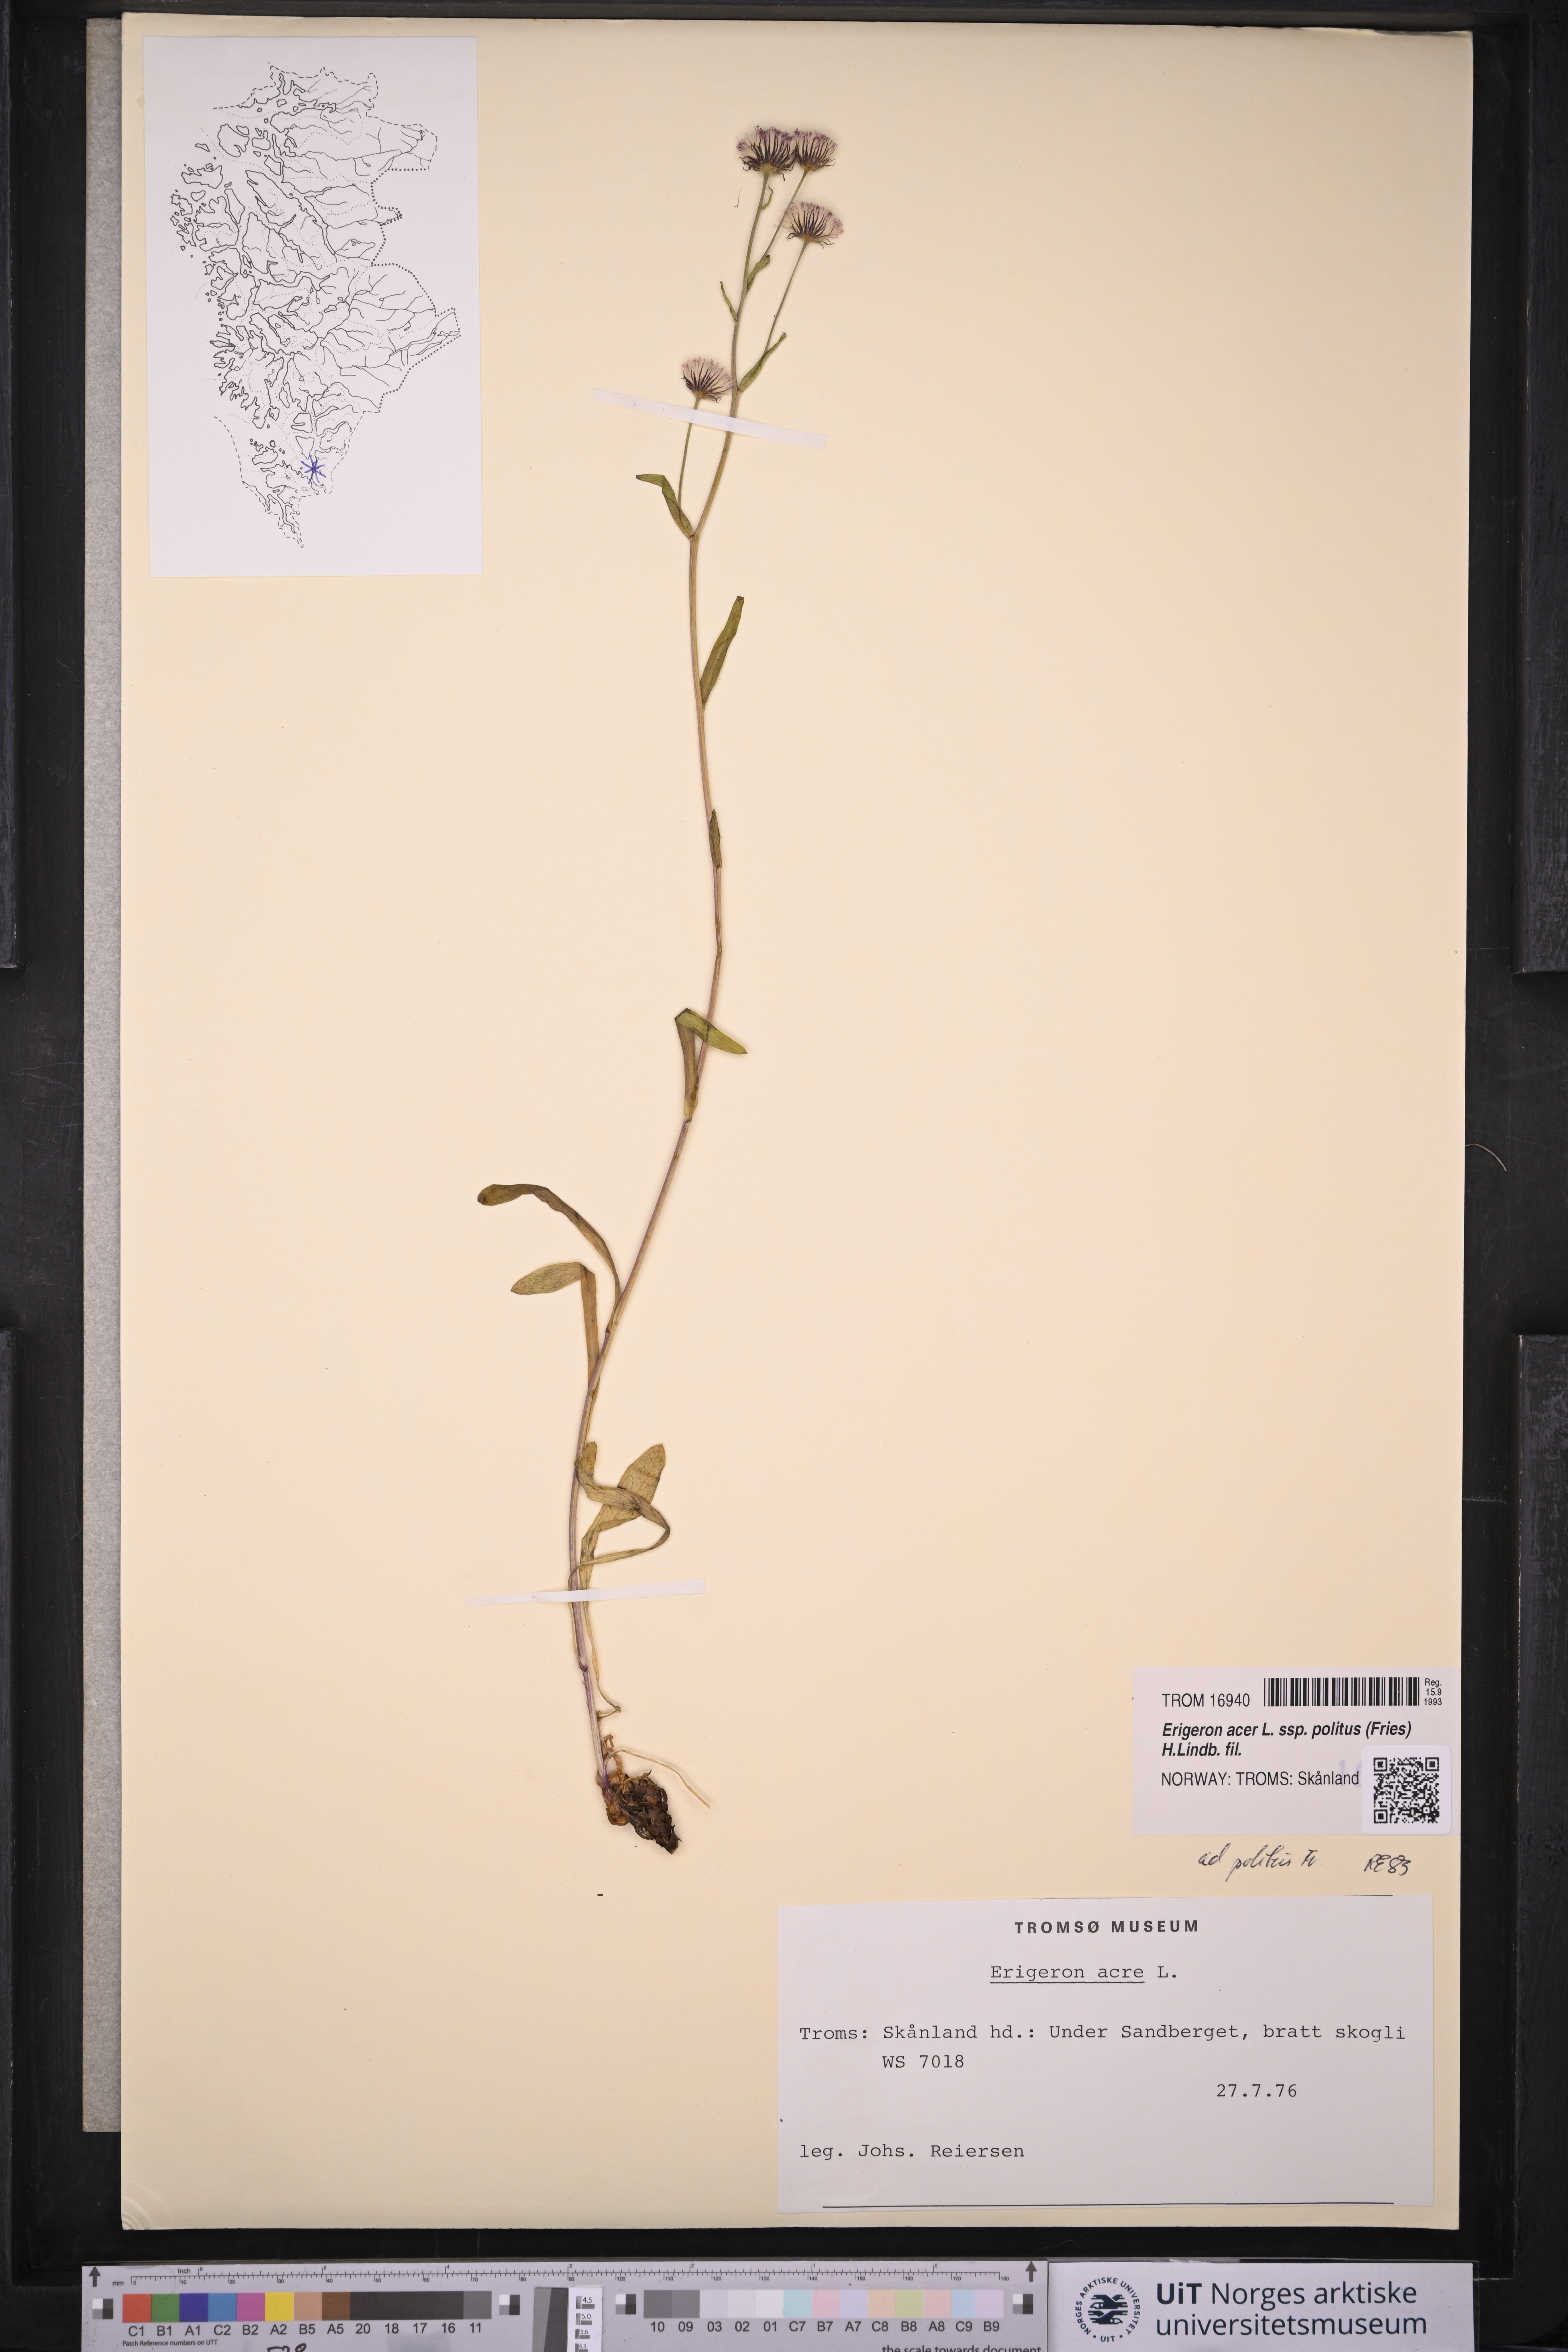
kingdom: Plantae
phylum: Tracheophyta
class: Magnoliopsida
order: Asterales
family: Asteraceae
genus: Erigeron
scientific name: Erigeron politus
